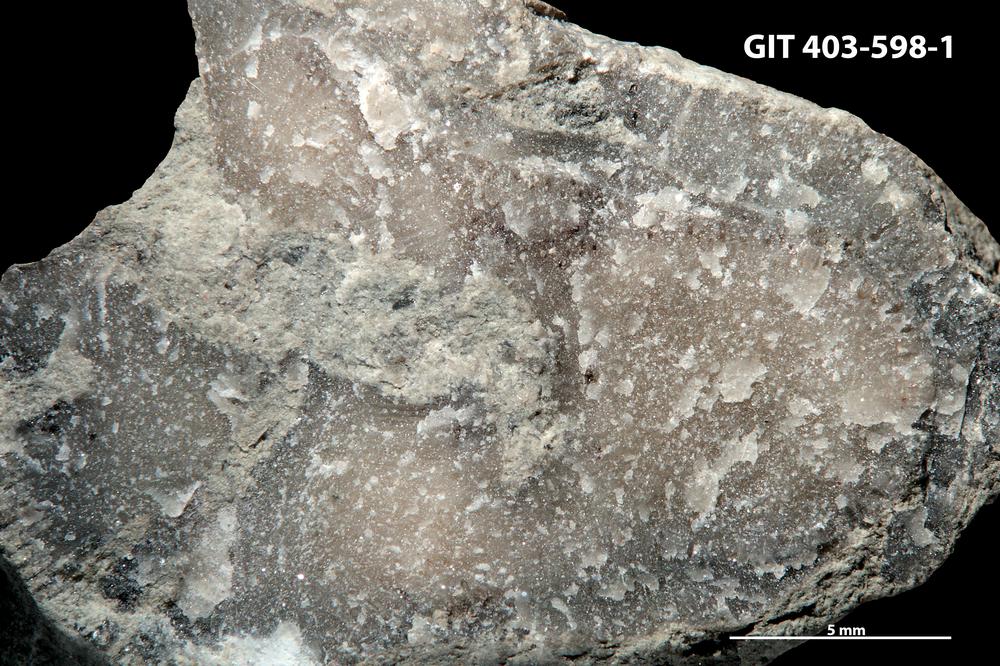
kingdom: Animalia
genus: Sanctum
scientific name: Sanctum
